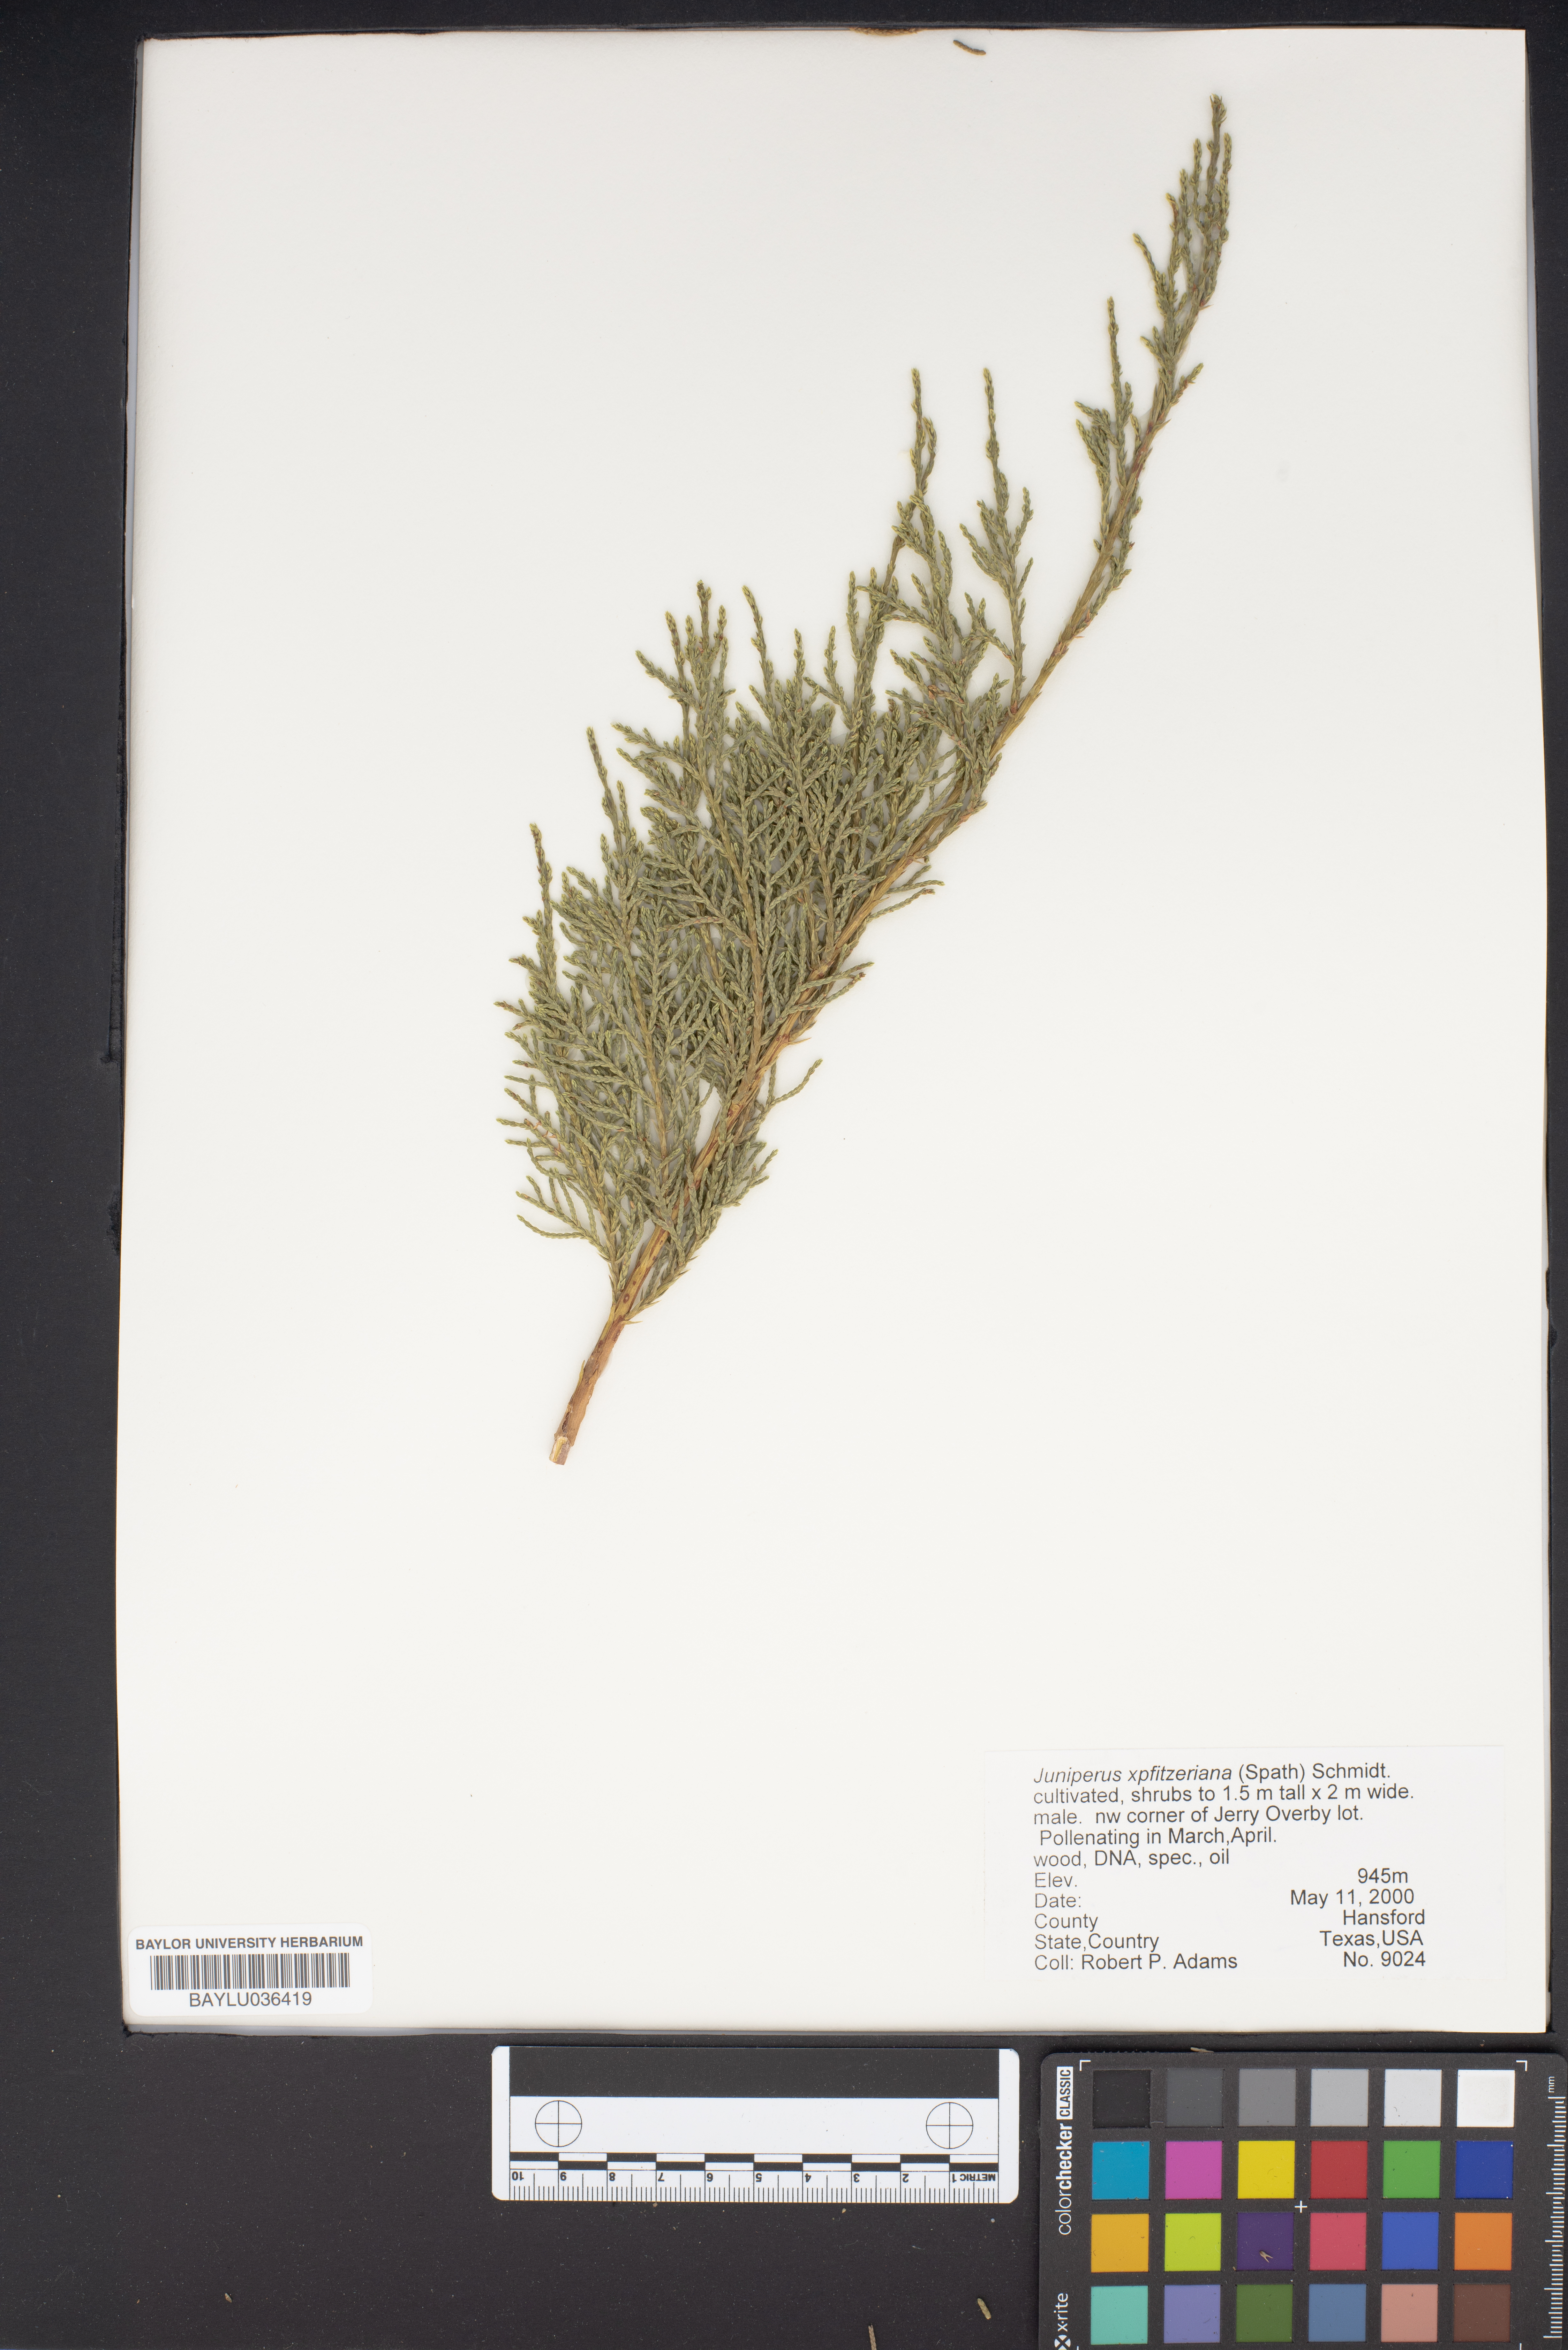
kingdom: Plantae
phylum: Tracheophyta
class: Pinopsida
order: Pinales
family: Cupressaceae
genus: Juniperus
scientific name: Juniperus pfitzeriana
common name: Pfitzer juniper
